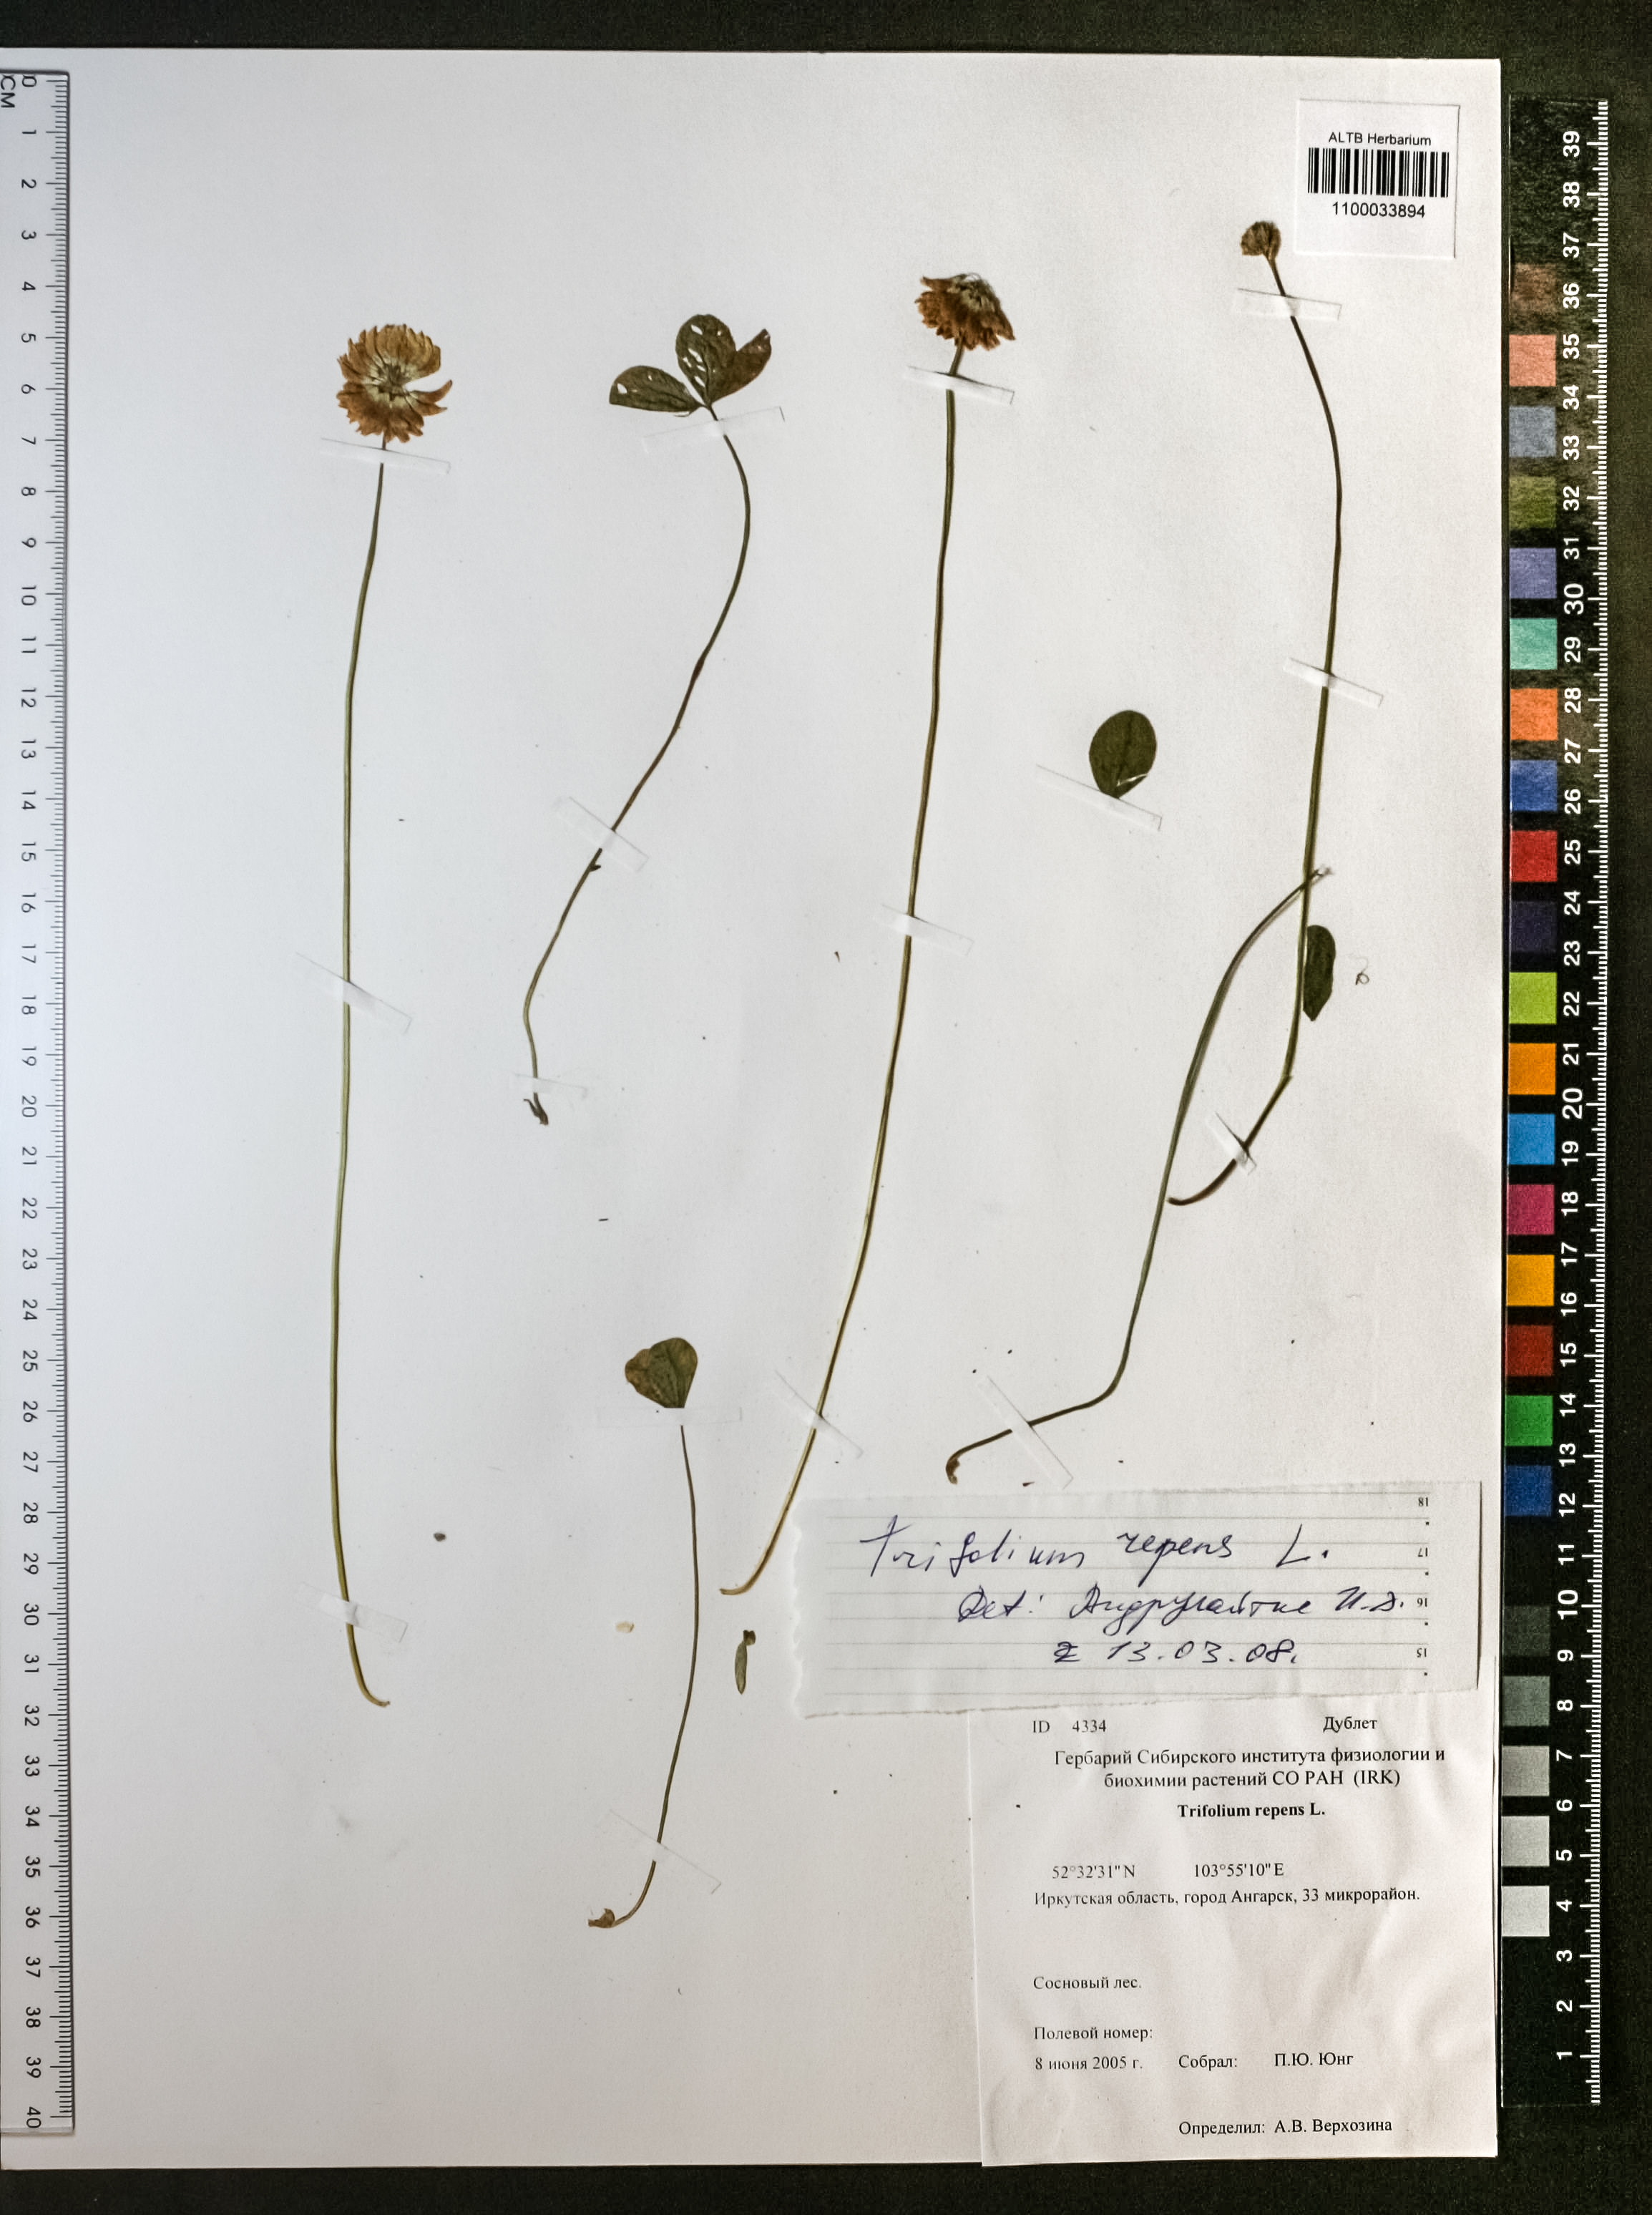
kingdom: Plantae
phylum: Tracheophyta
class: Magnoliopsida
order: Fabales
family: Fabaceae
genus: Trifolium
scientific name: Trifolium repens
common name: White clover
